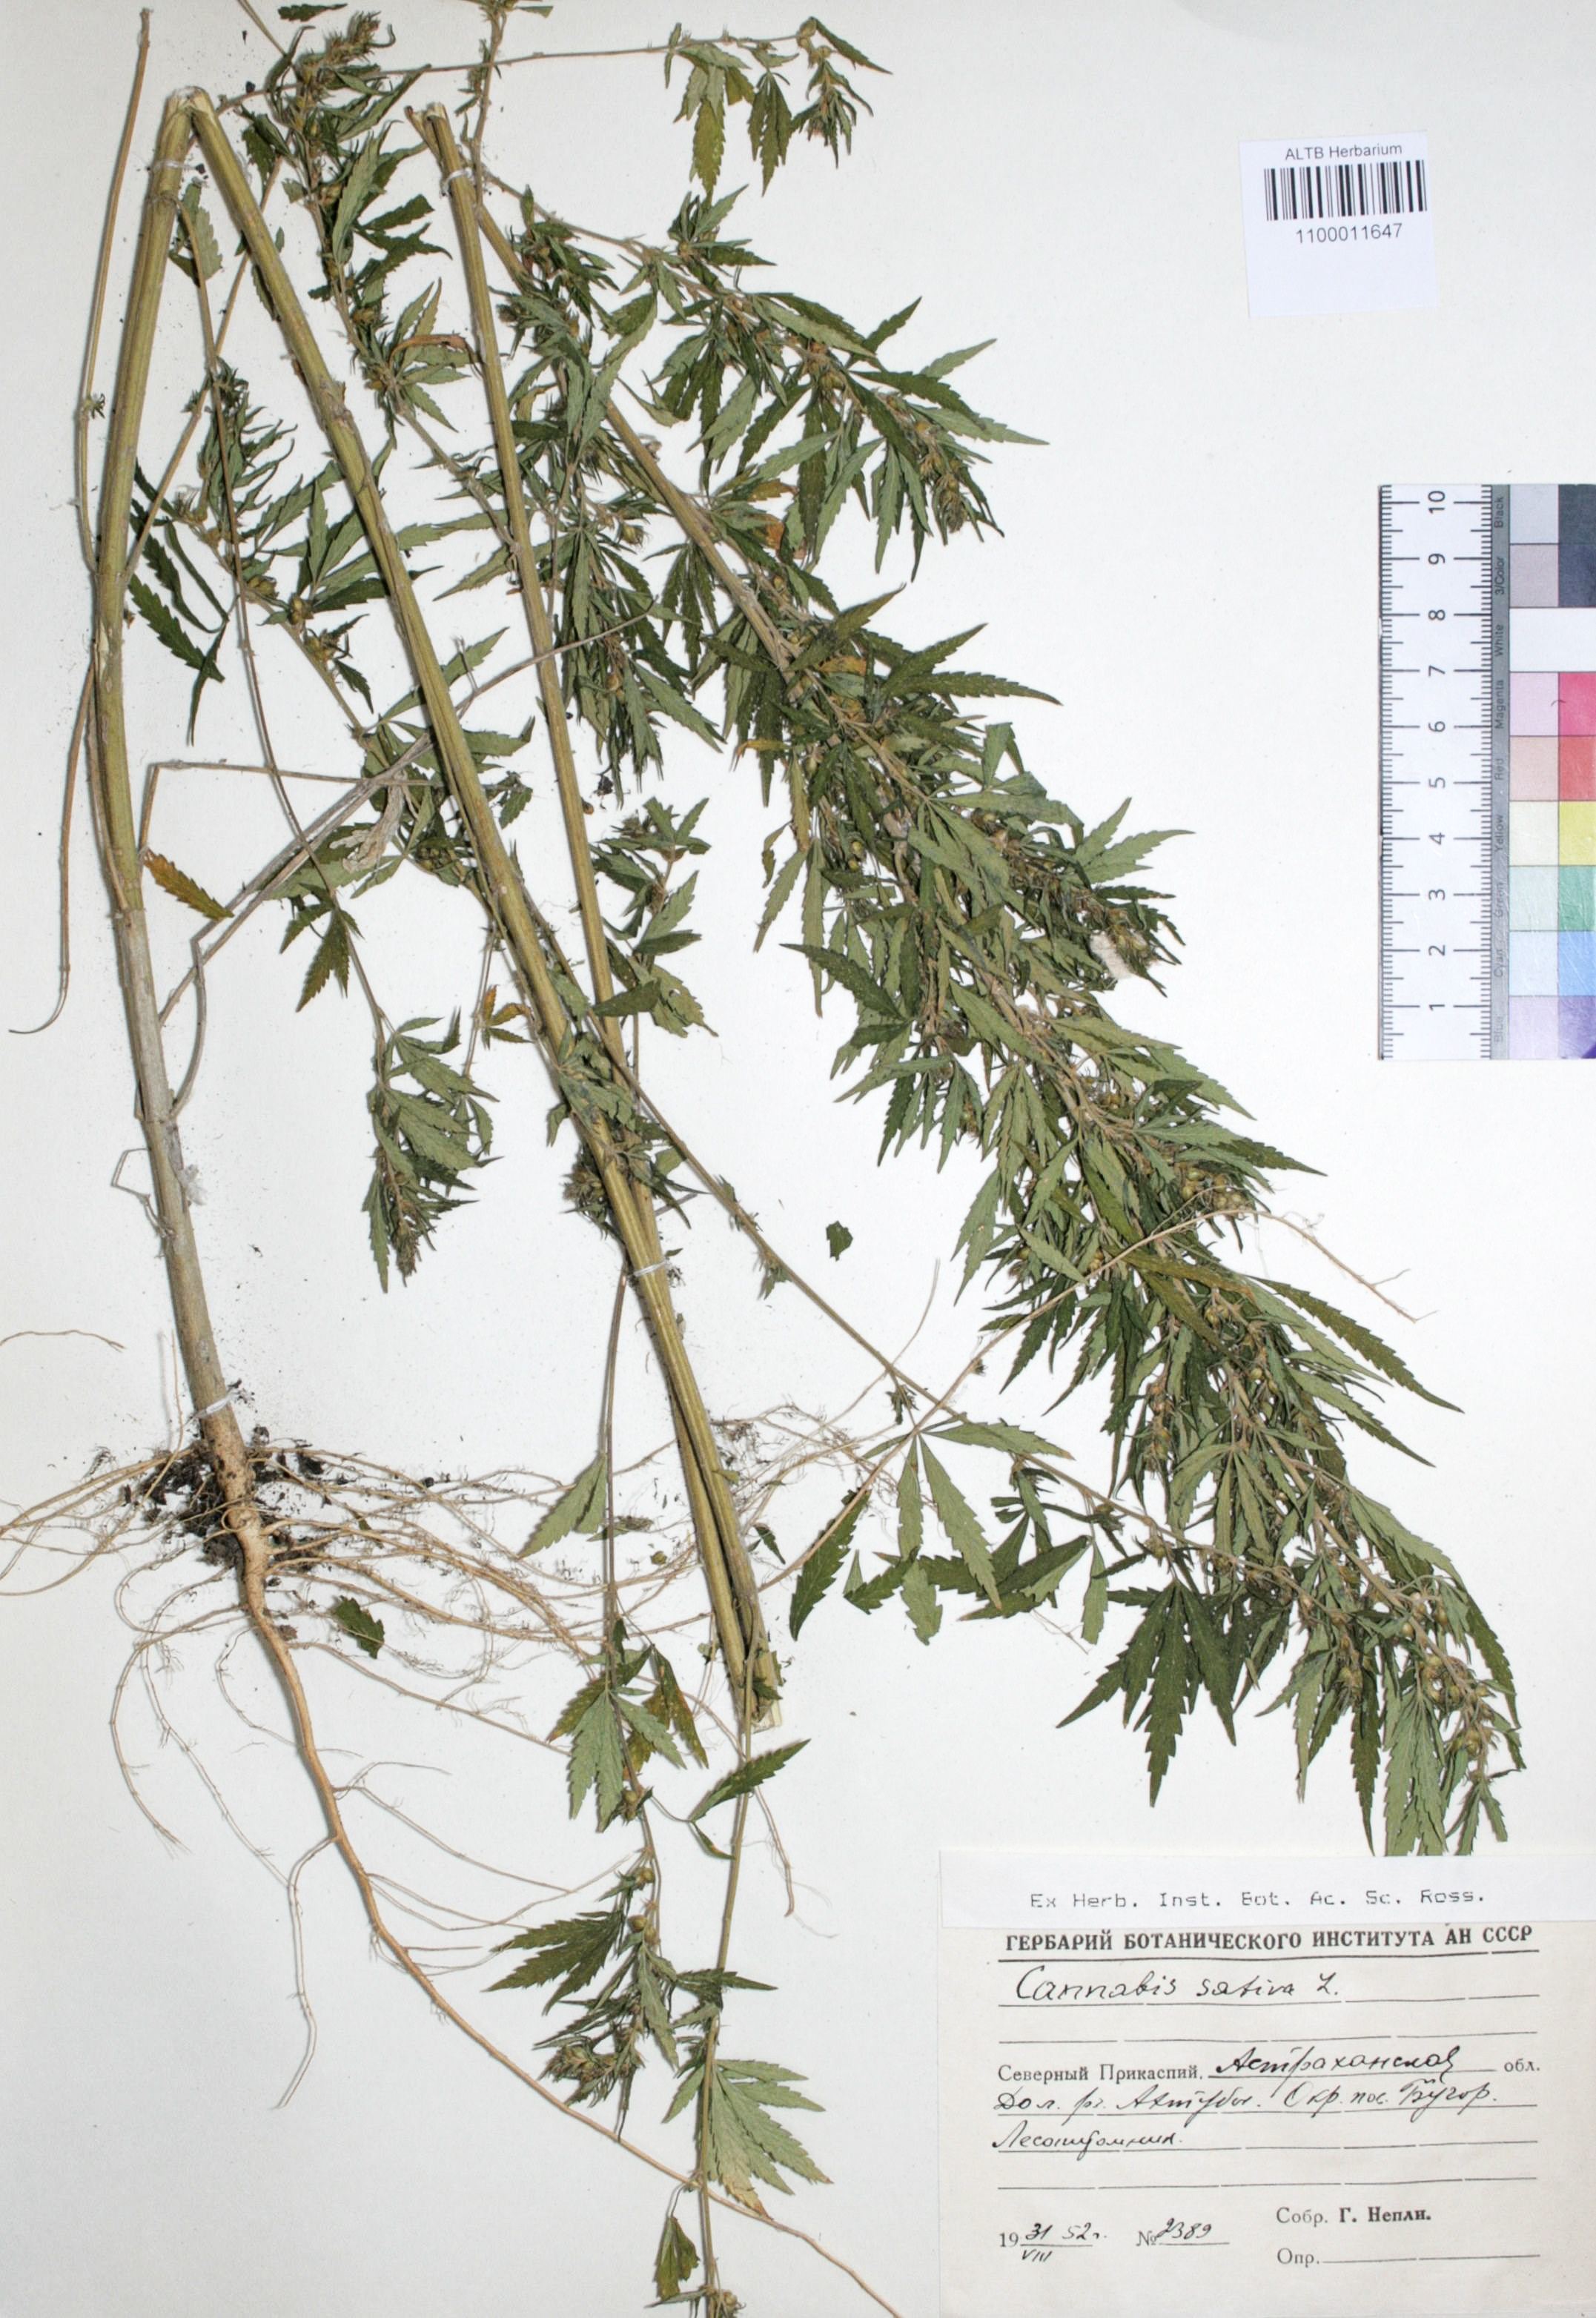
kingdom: Plantae
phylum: Tracheophyta
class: Magnoliopsida
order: Rosales
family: Cannabaceae
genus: Cannabis
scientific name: Cannabis sativa
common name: Hemp
